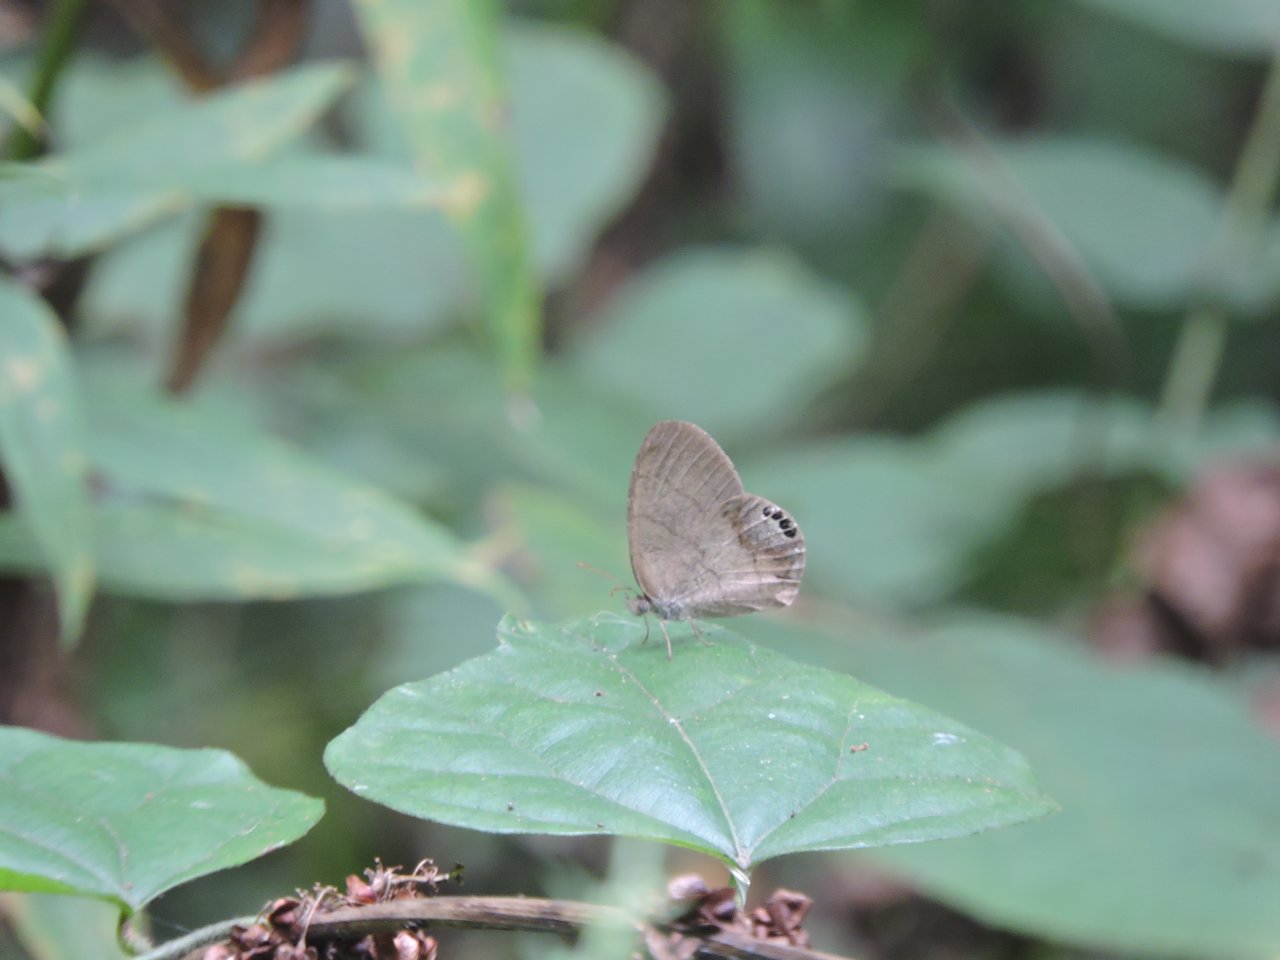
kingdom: Animalia
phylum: Arthropoda
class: Insecta
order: Lepidoptera
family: Nymphalidae
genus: Euptychia
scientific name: Euptychia cornelius
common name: Gemmed Satyr
